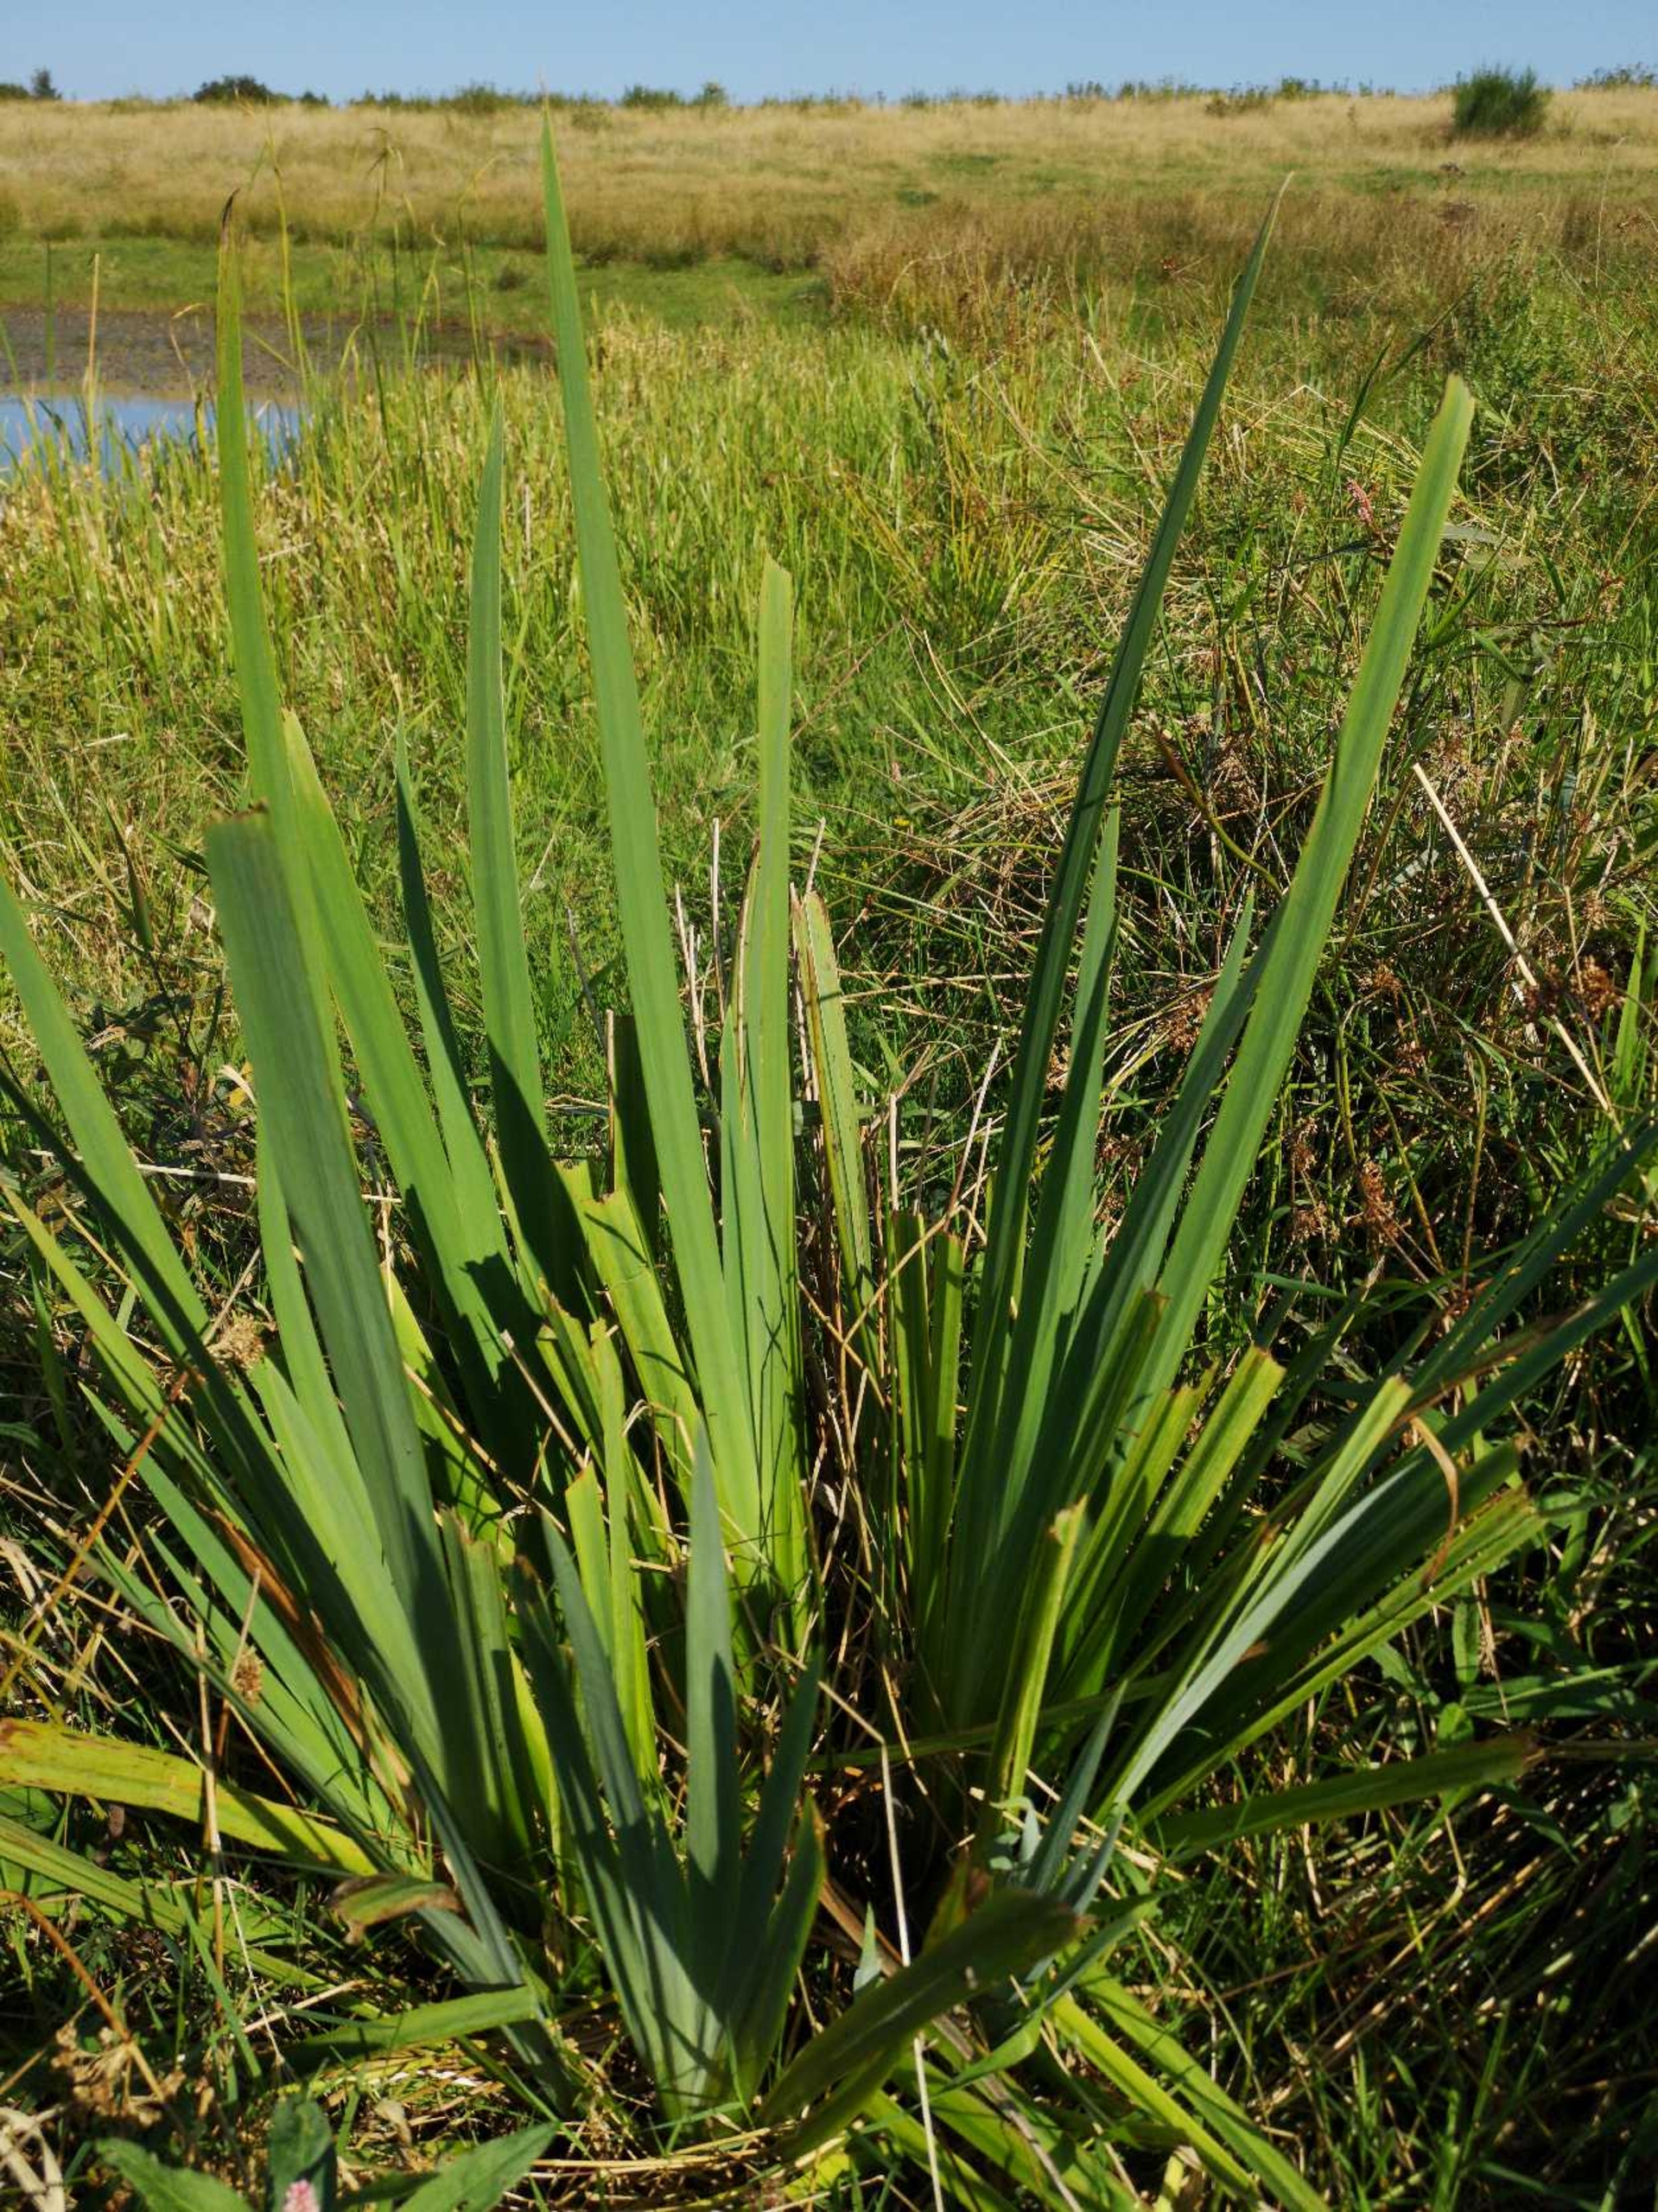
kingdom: Plantae
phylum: Tracheophyta
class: Liliopsida
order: Asparagales
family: Iridaceae
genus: Iris
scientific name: Iris pseudacorus
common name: Gul iris
